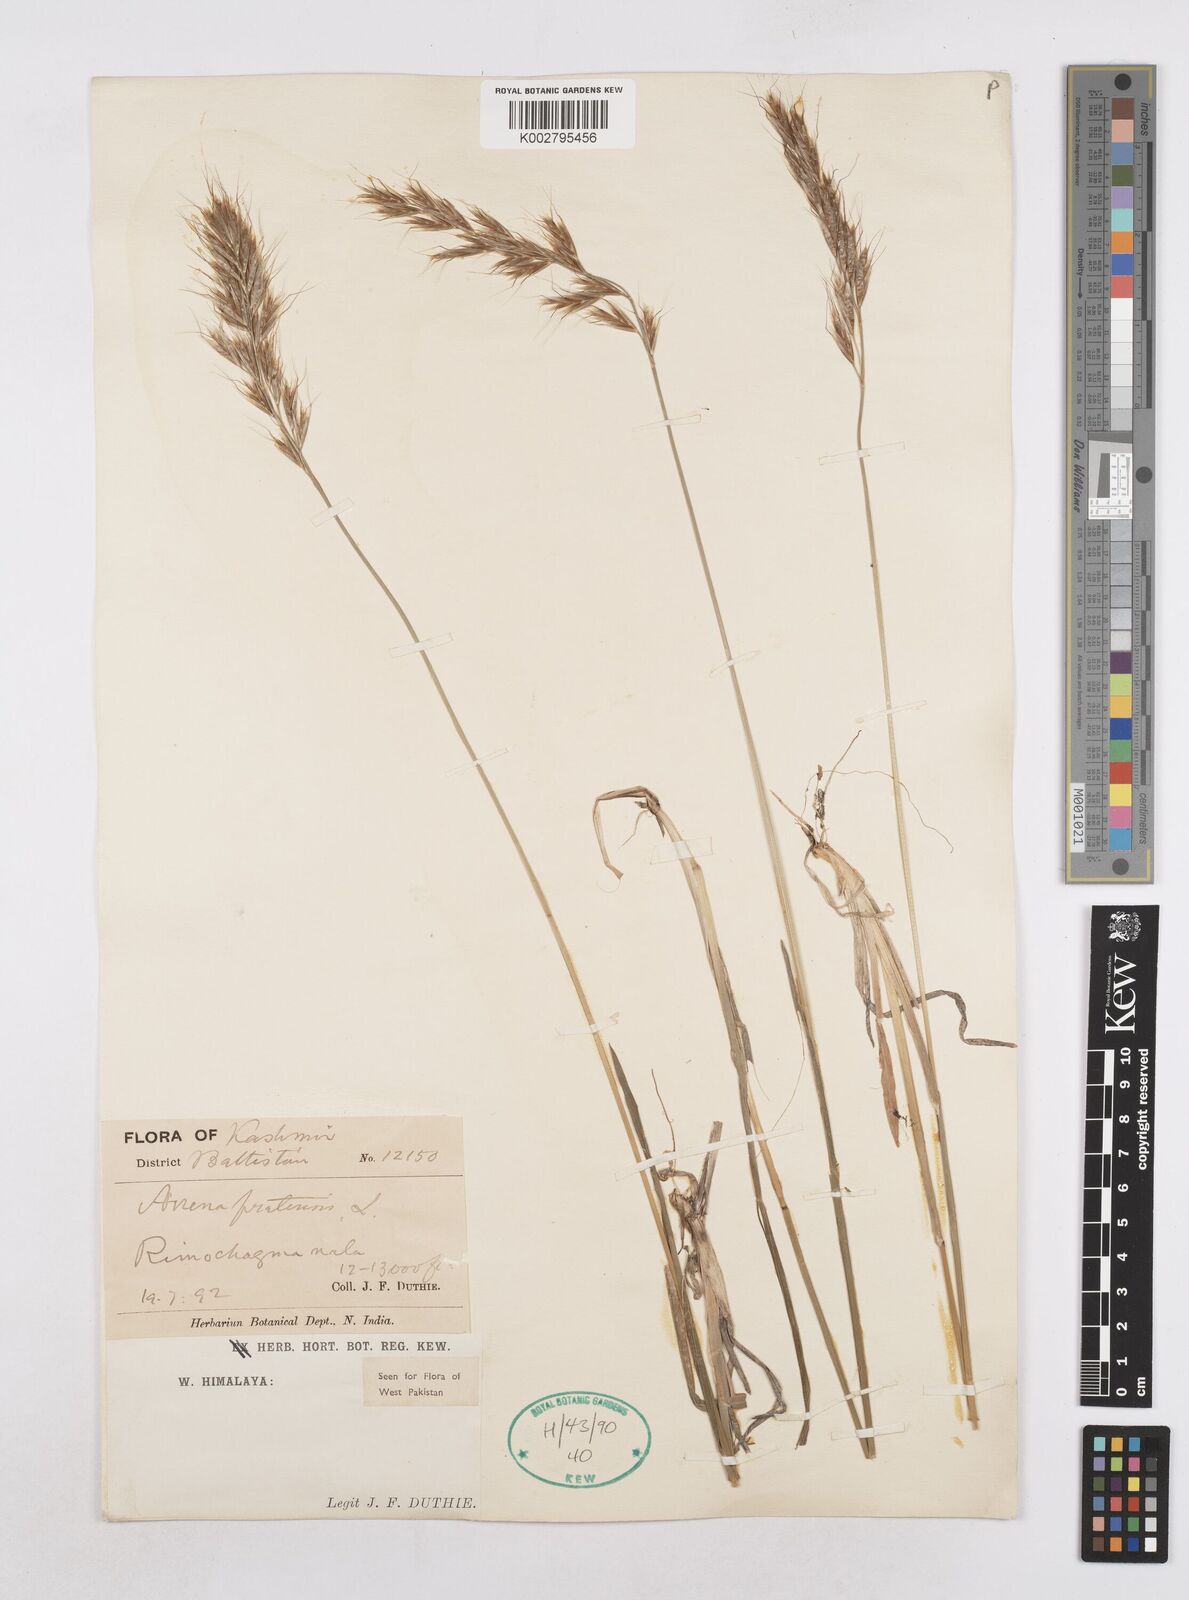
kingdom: Plantae
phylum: Tracheophyta
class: Liliopsida
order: Poales
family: Poaceae
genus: Helictochloa
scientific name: Helictochloa pratensis
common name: Meadow oat grass
